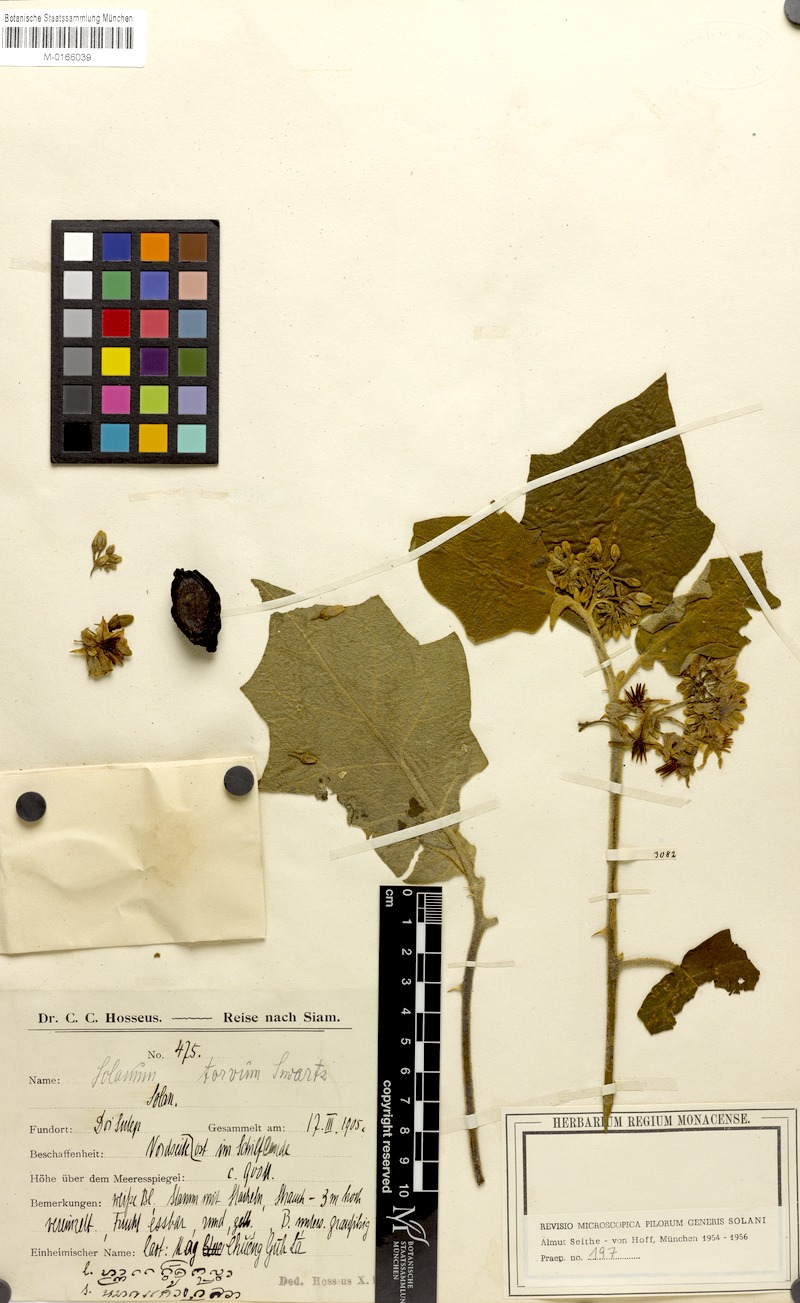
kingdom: Plantae
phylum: Tracheophyta
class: Magnoliopsida
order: Solanales
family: Solanaceae
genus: Solanum
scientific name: Solanum torvum
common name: Turkey berry
